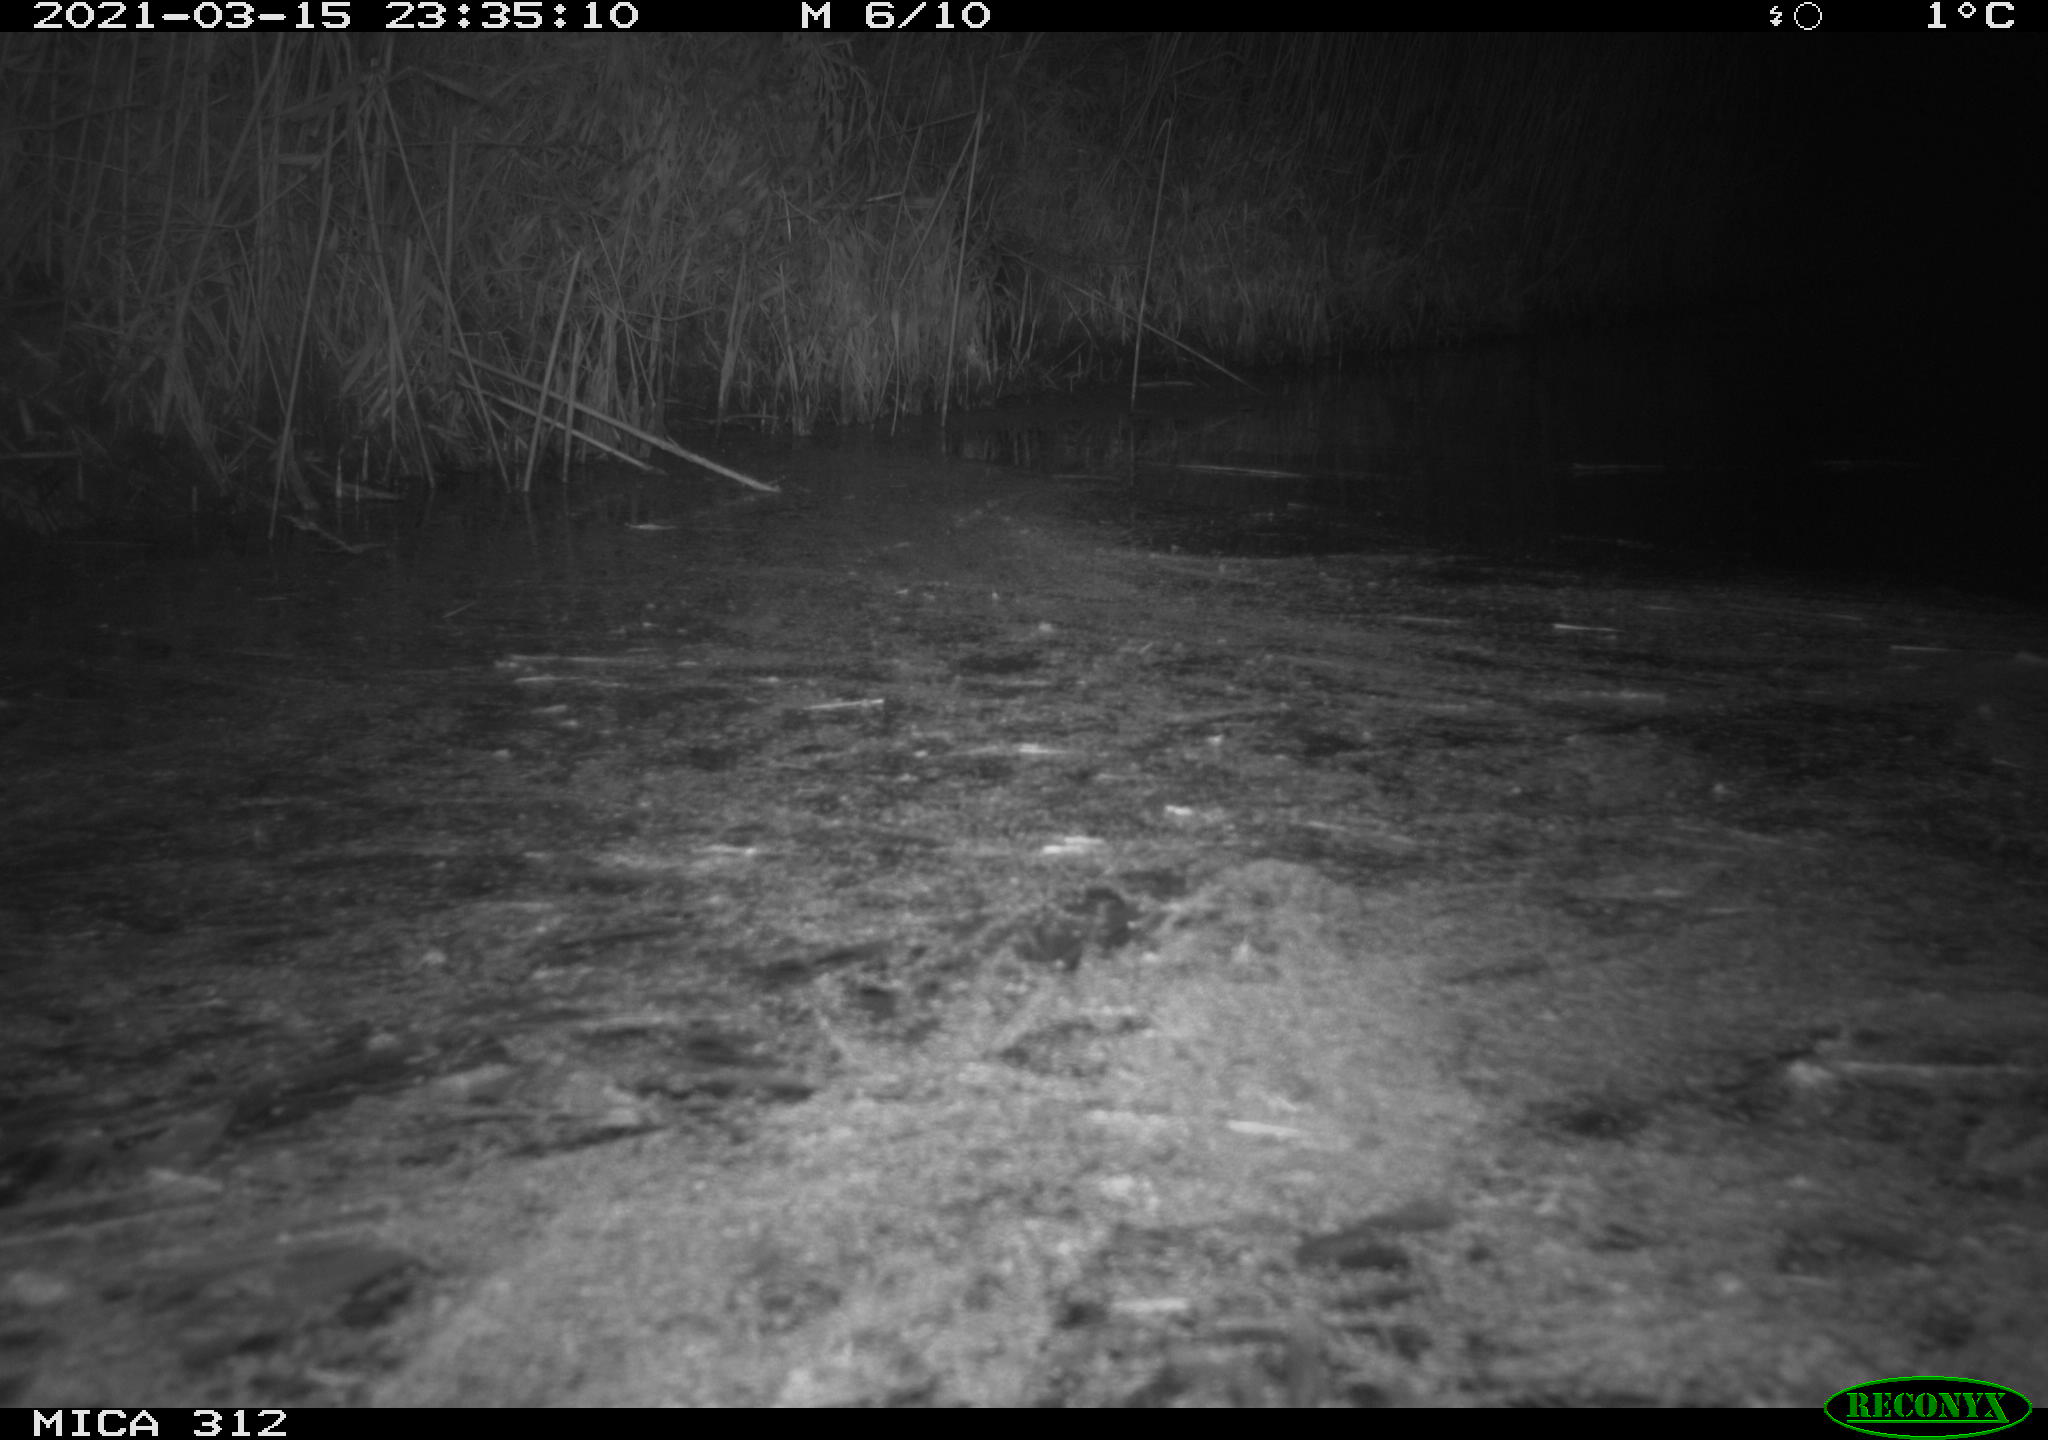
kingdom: Animalia
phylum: Chordata
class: Mammalia
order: Rodentia
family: Cricetidae
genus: Ondatra
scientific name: Ondatra zibethicus
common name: Muskrat
